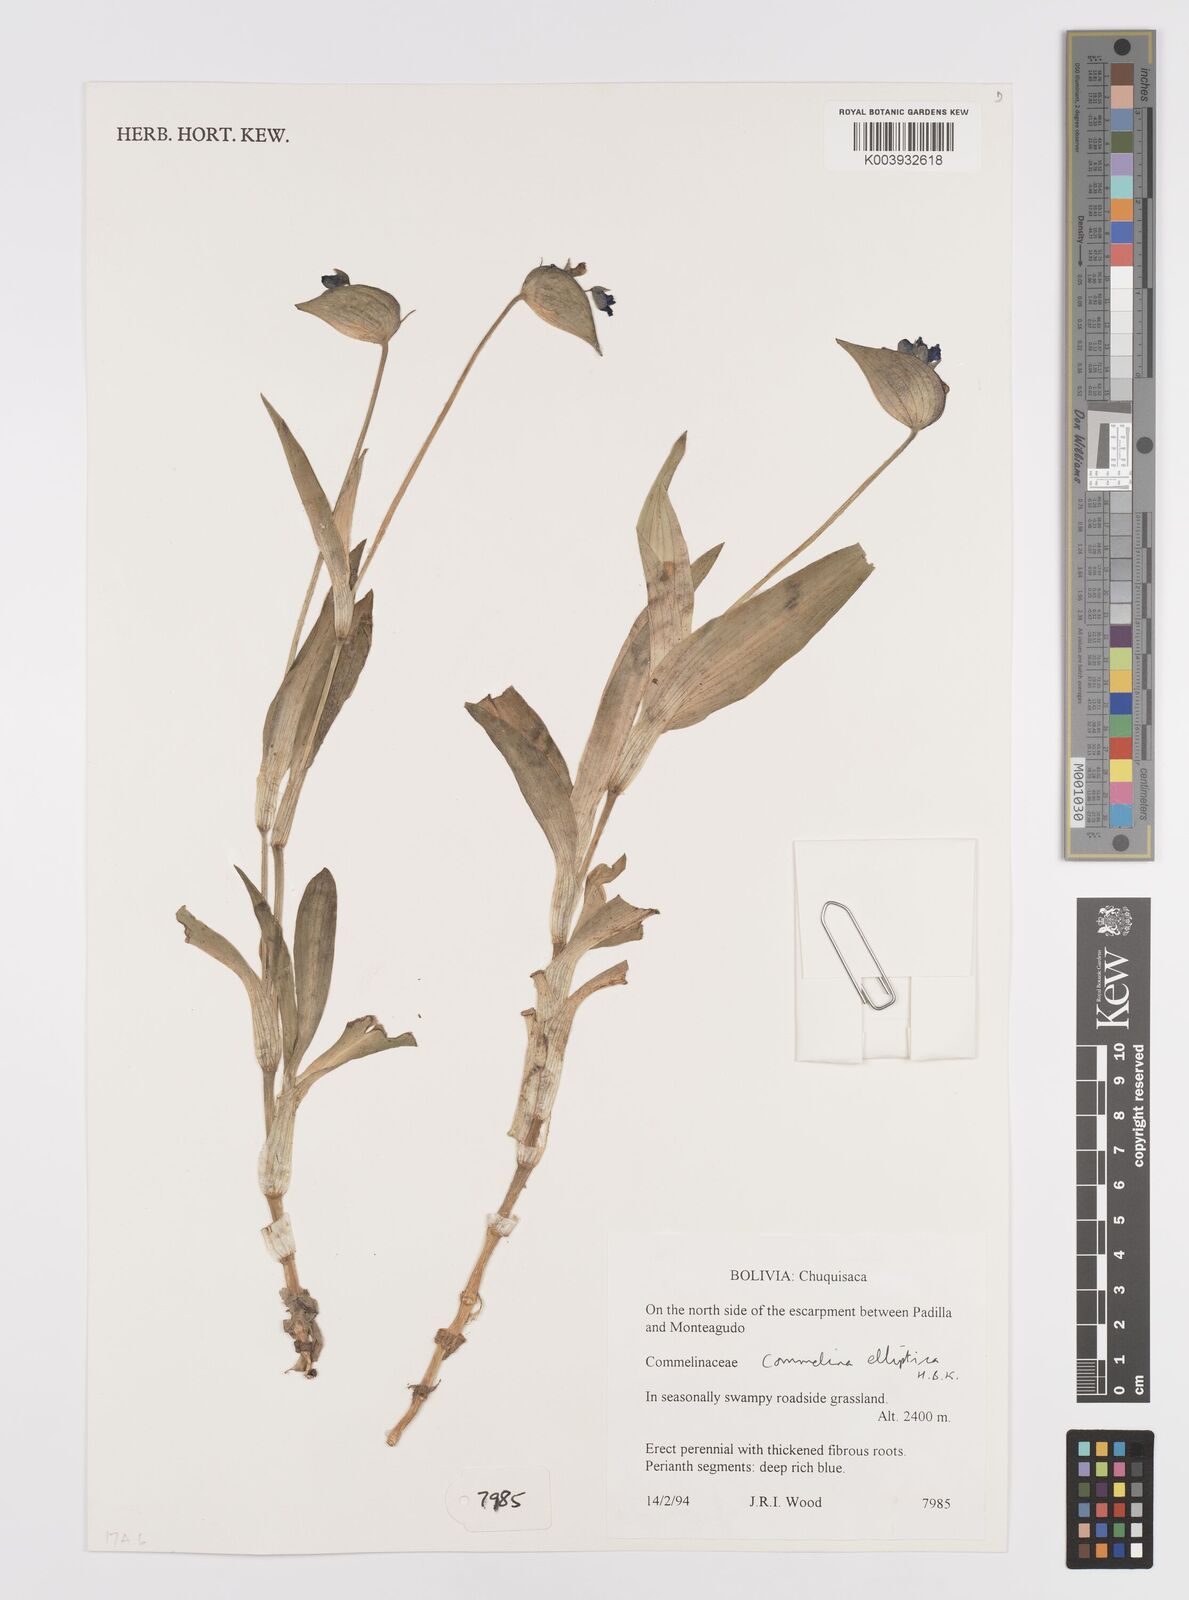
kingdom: Plantae
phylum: Tracheophyta
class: Liliopsida
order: Commelinales
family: Commelinaceae
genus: Commelina
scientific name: Commelina elliptica
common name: Peruvian spiderwort
